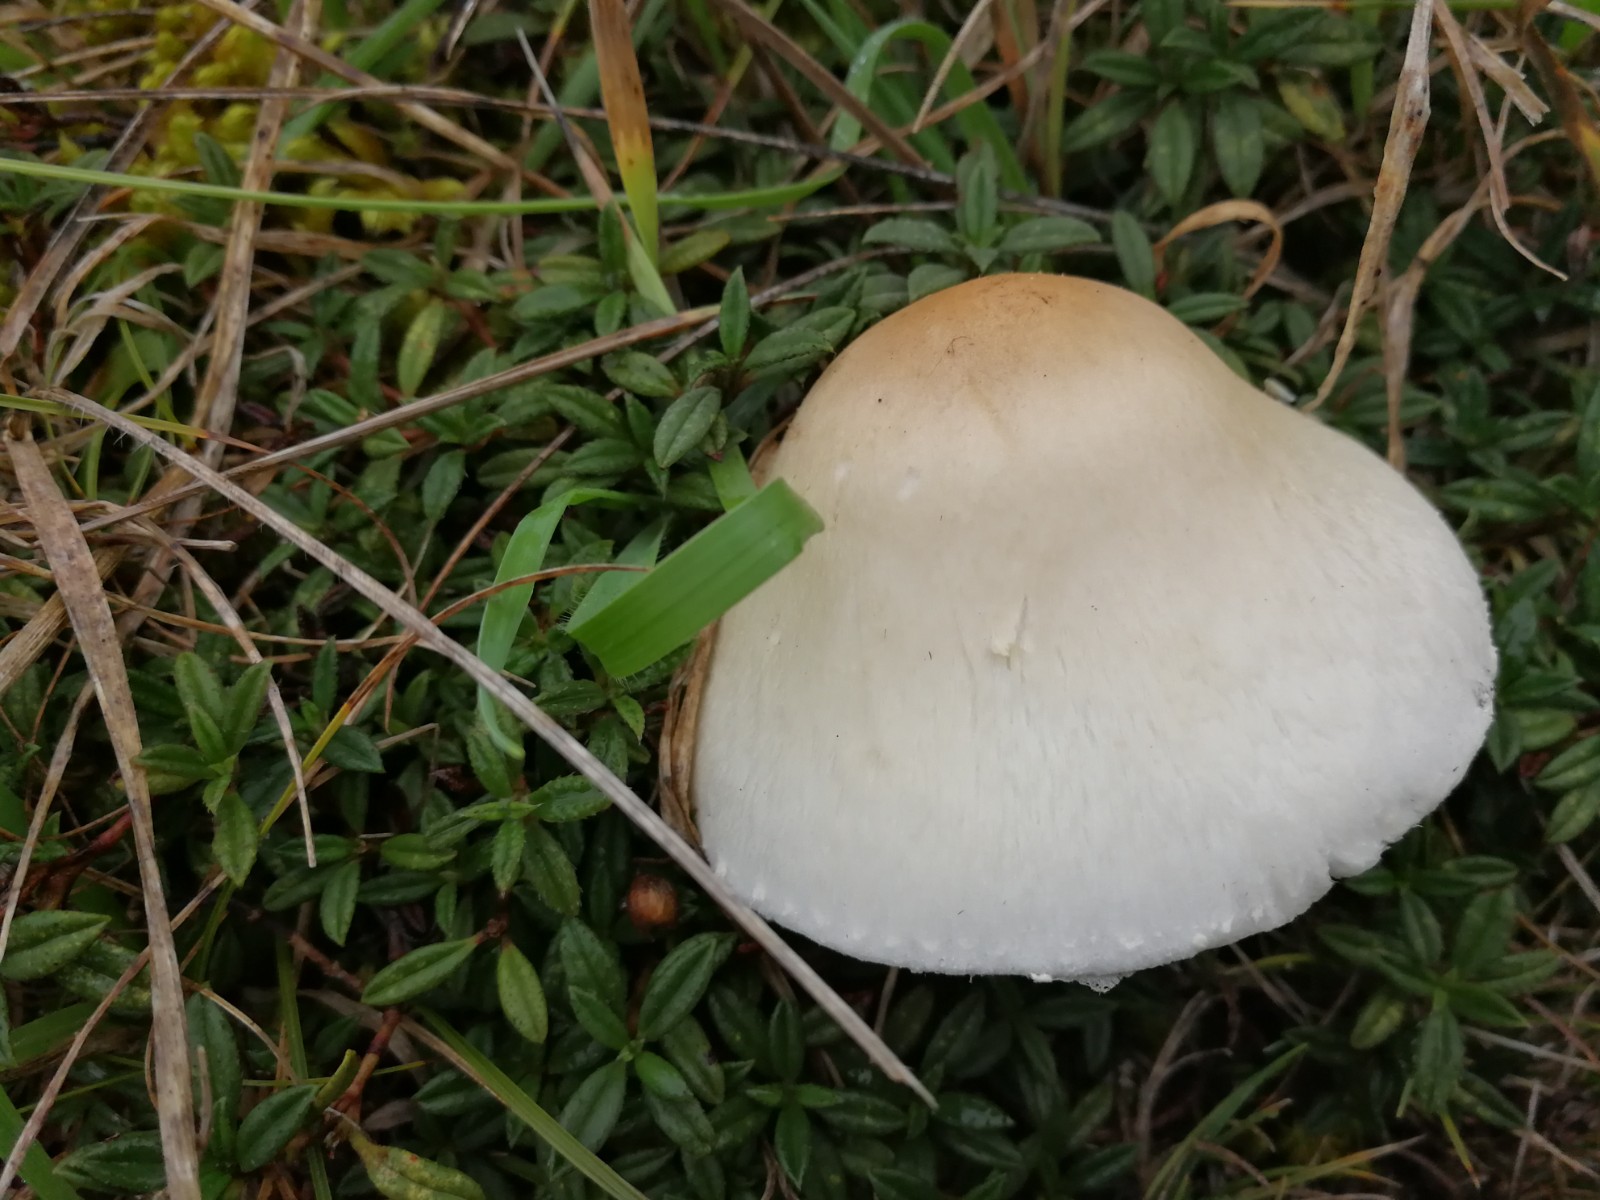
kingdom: Fungi
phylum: Basidiomycota
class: Agaricomycetes
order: Agaricales
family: Agaricaceae
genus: Lepiota
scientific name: Lepiota erminea
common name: hvid parasolhat
